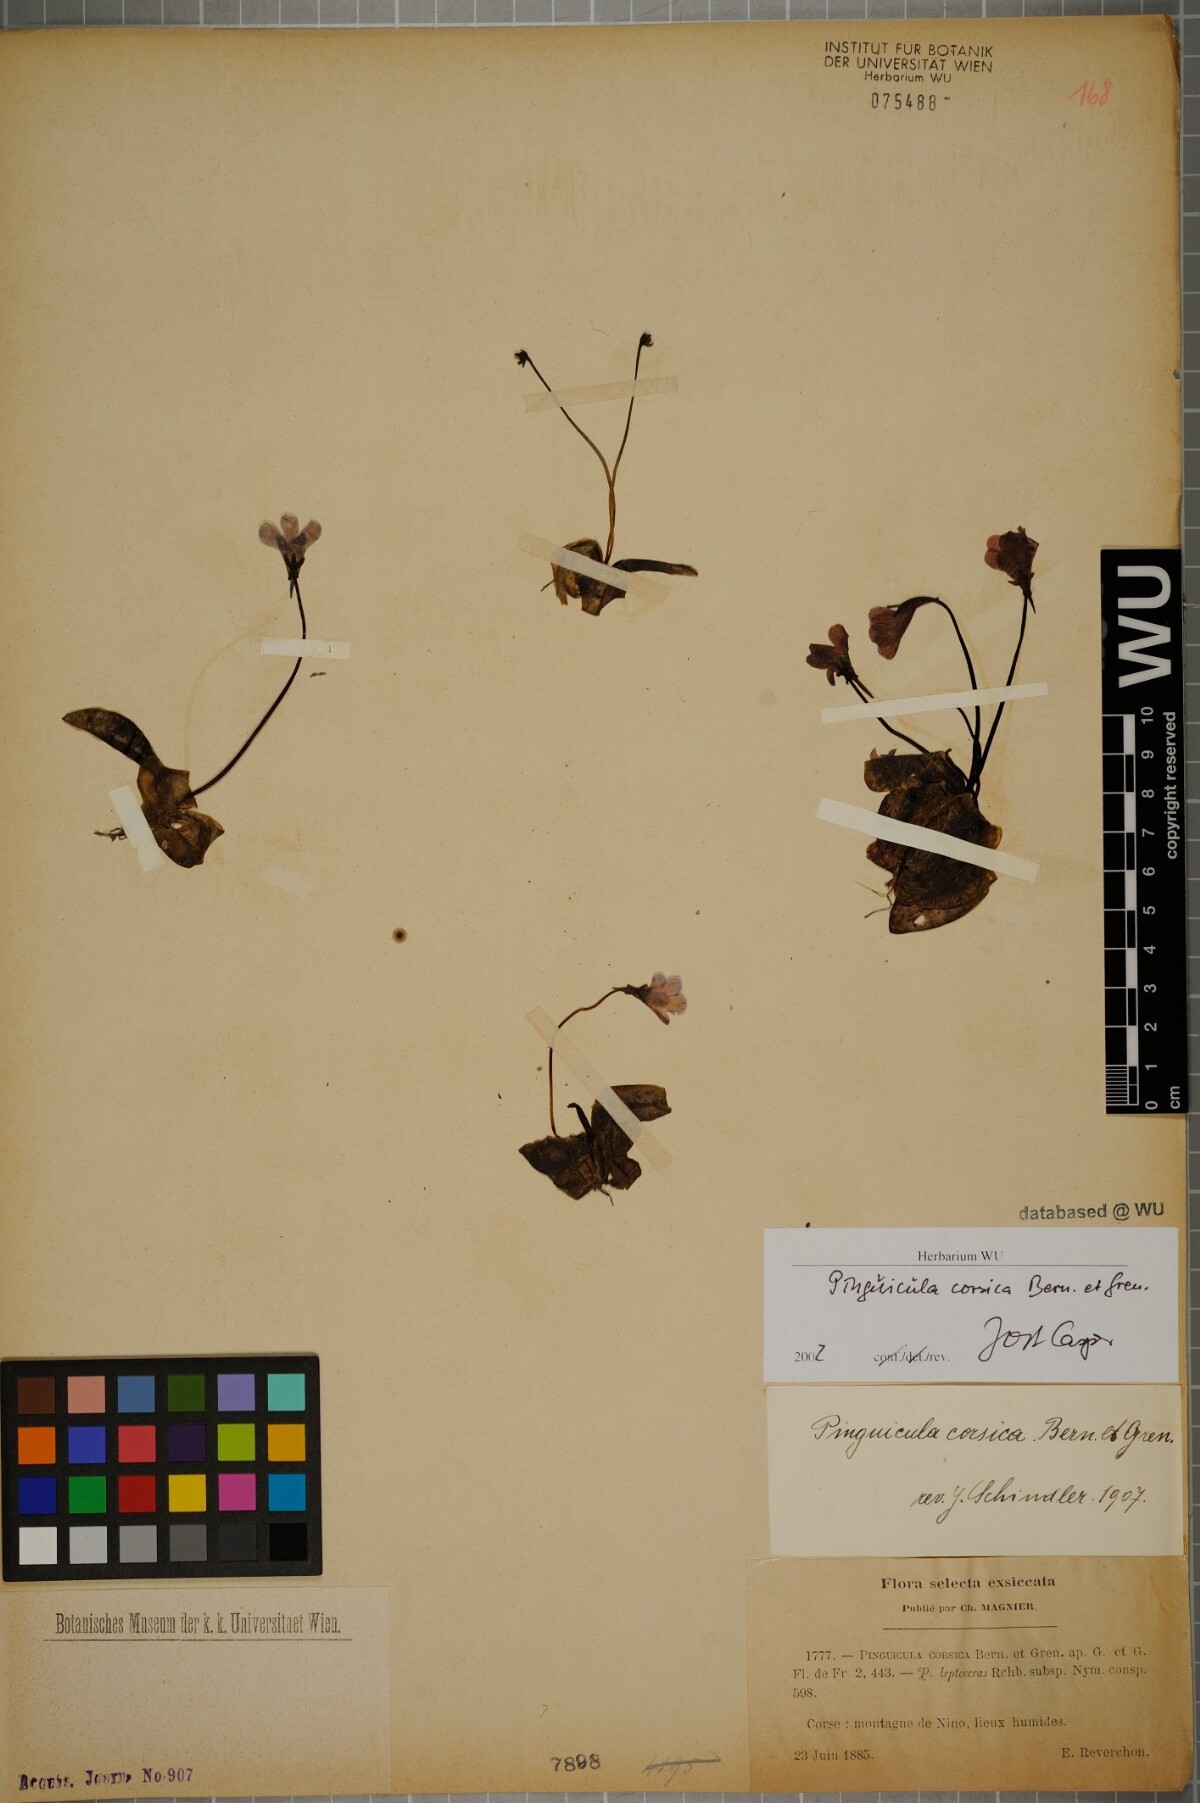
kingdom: Plantae
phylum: Tracheophyta
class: Magnoliopsida
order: Lamiales
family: Lentibulariaceae
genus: Pinguicula
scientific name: Pinguicula corsica
